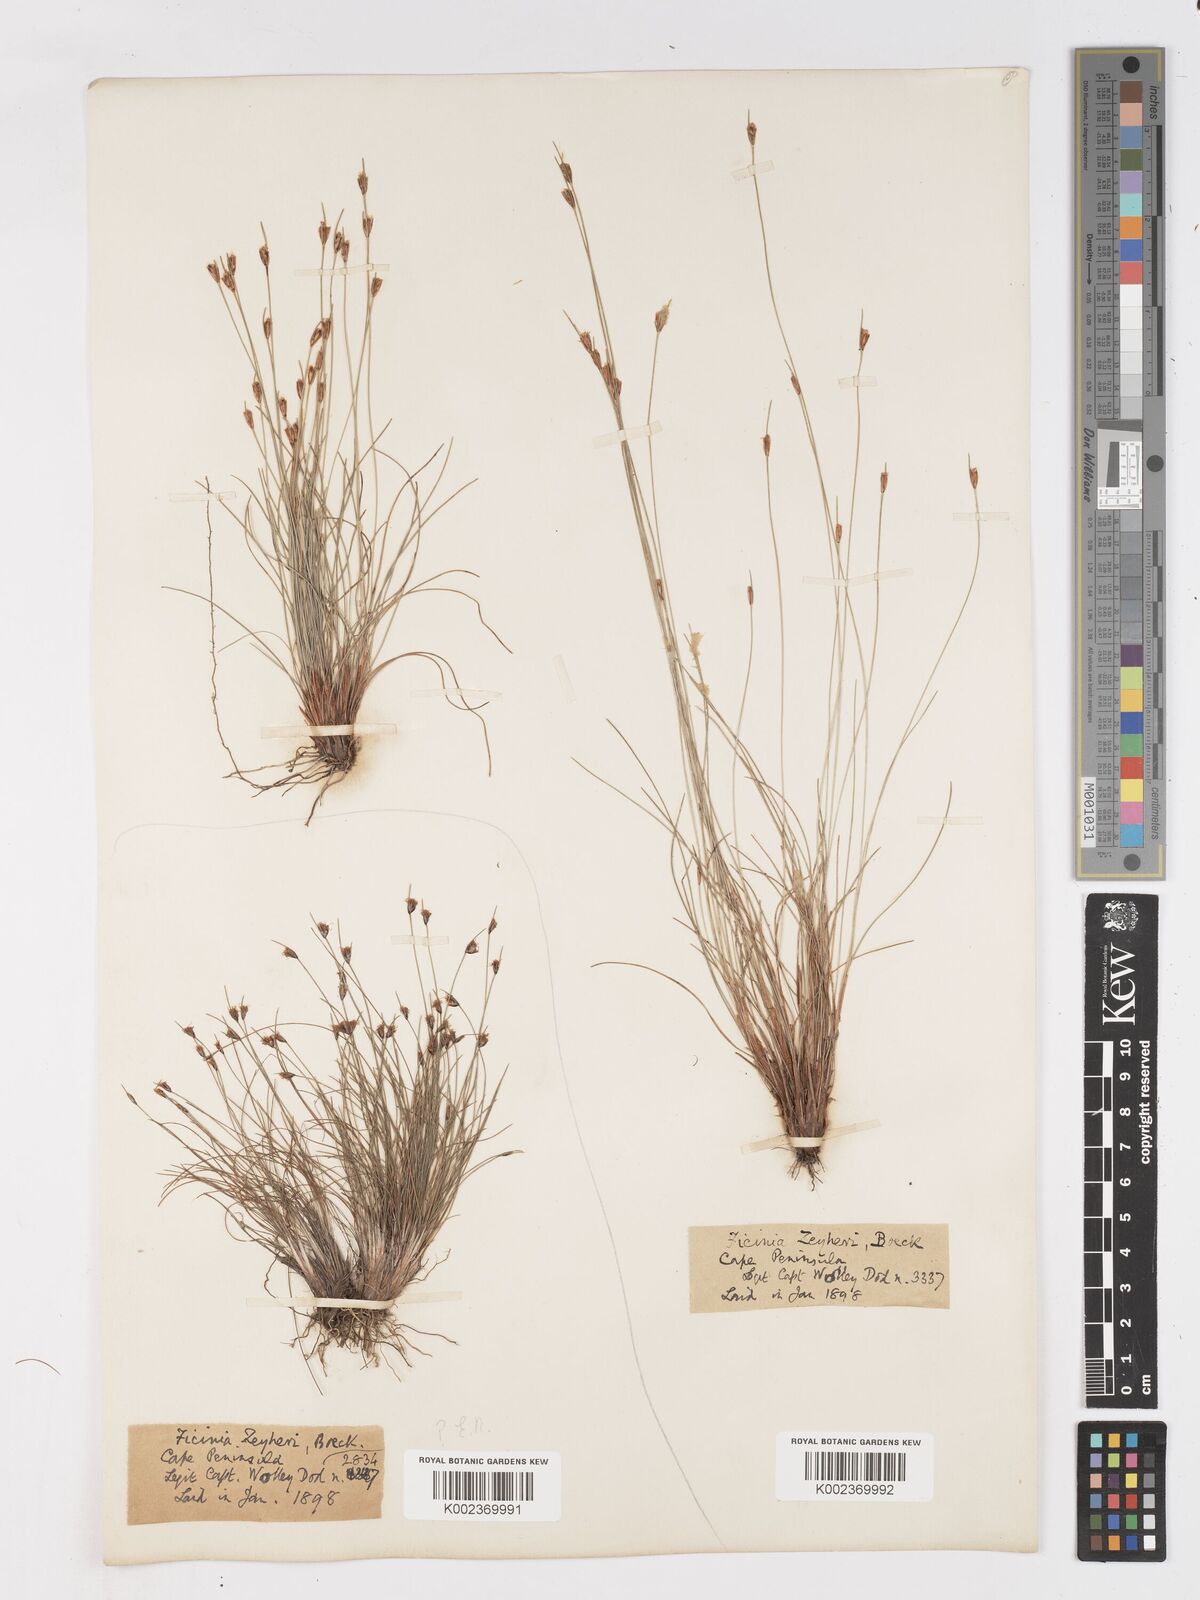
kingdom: Plantae
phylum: Tracheophyta
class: Liliopsida
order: Poales
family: Cyperaceae
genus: Ficinia
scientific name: Ficinia zeyheri
